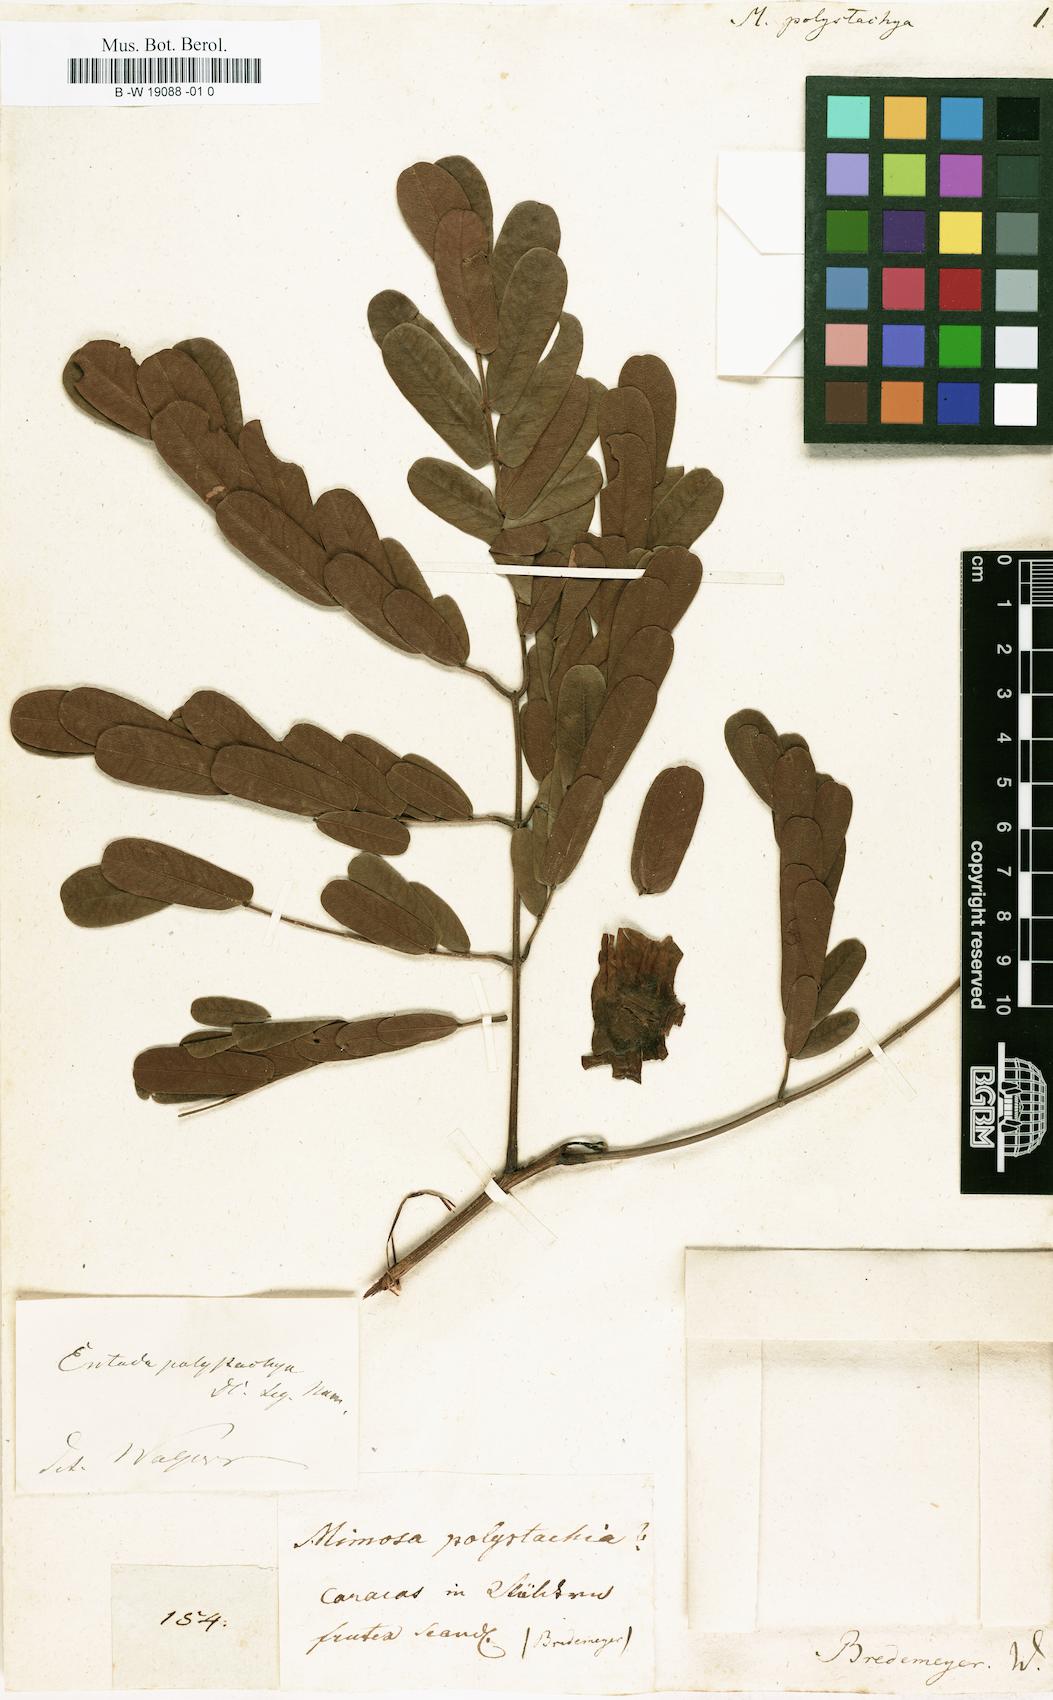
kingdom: Plantae
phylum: Tracheophyta
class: Magnoliopsida
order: Fabales
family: Fabaceae
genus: Entada
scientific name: Entada polystachya
